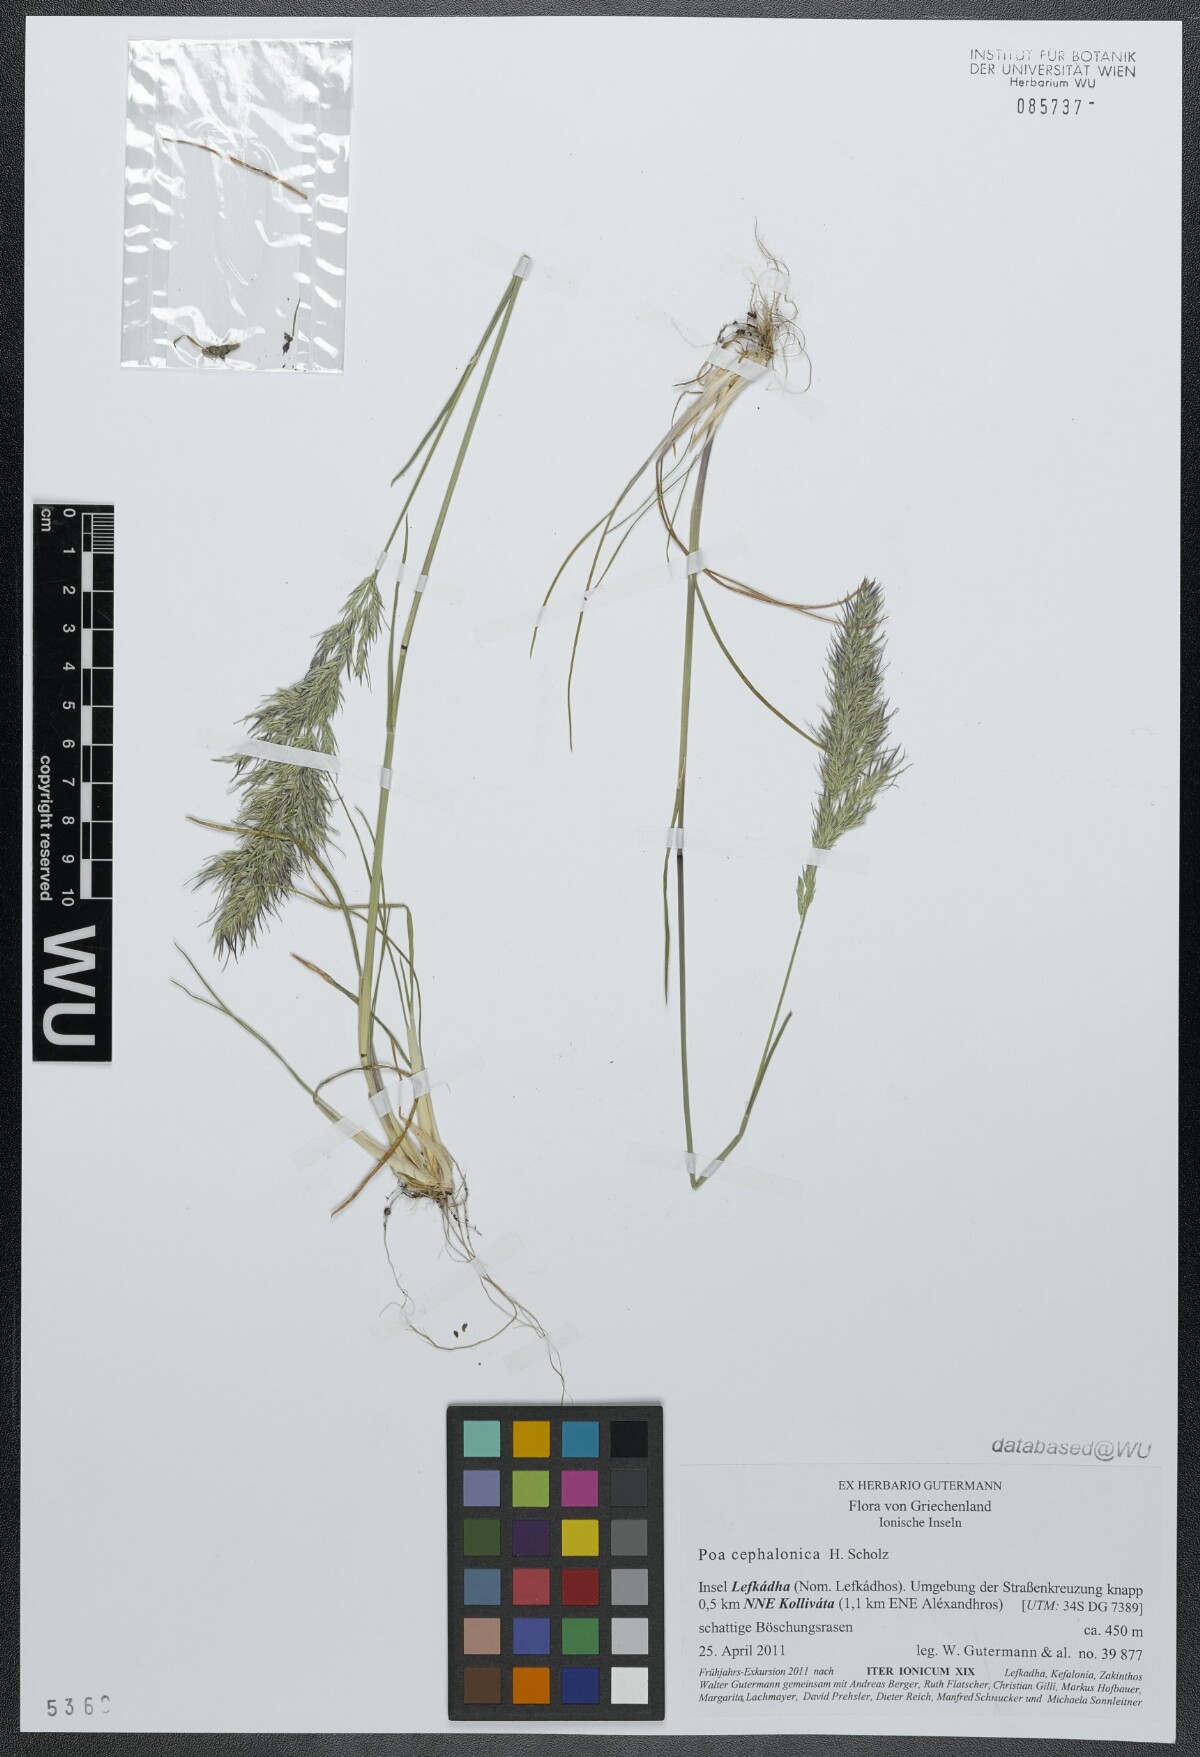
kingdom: Plantae
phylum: Tracheophyta
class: Liliopsida
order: Poales
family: Poaceae
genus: Poa
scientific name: Poa bulbosa
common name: Bulbous bluegrass
